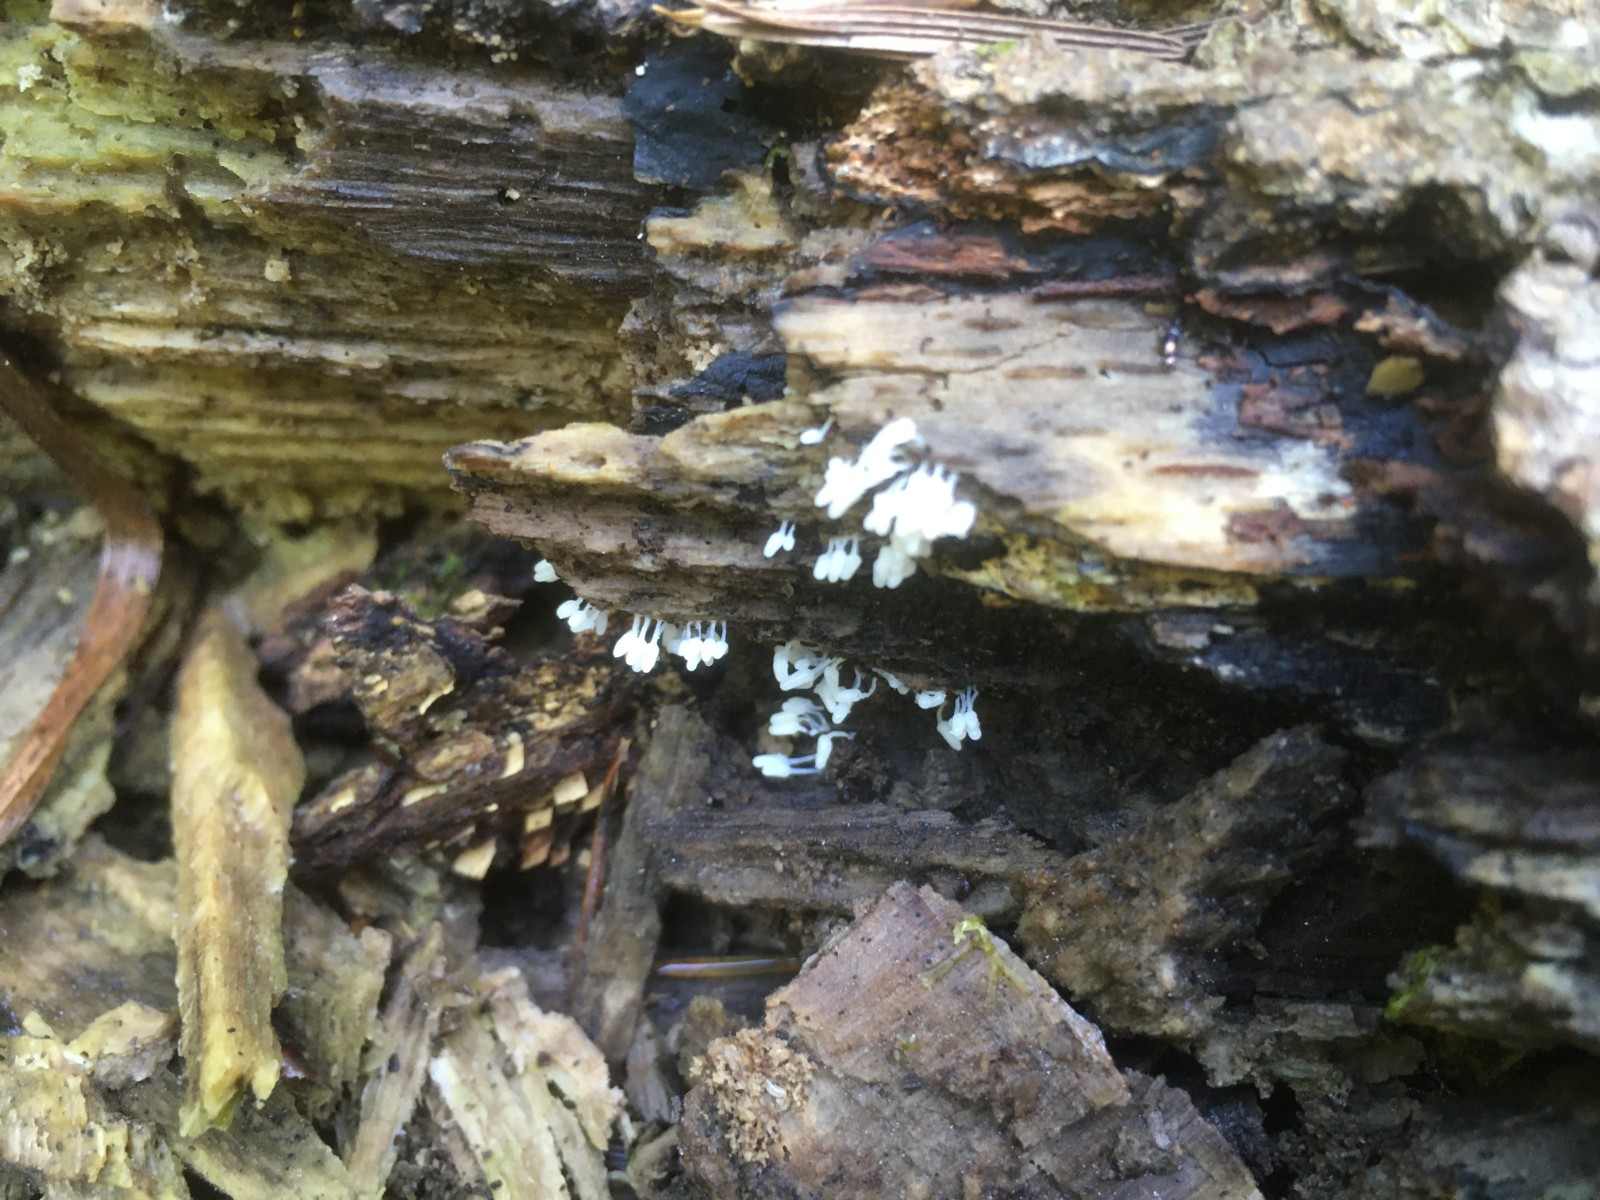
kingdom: Protozoa
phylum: Mycetozoa
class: Myxomycetes
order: Trichiales
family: Arcyriaceae
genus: Arcyria
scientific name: Arcyria denudata
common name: karminrød skålsvøb
